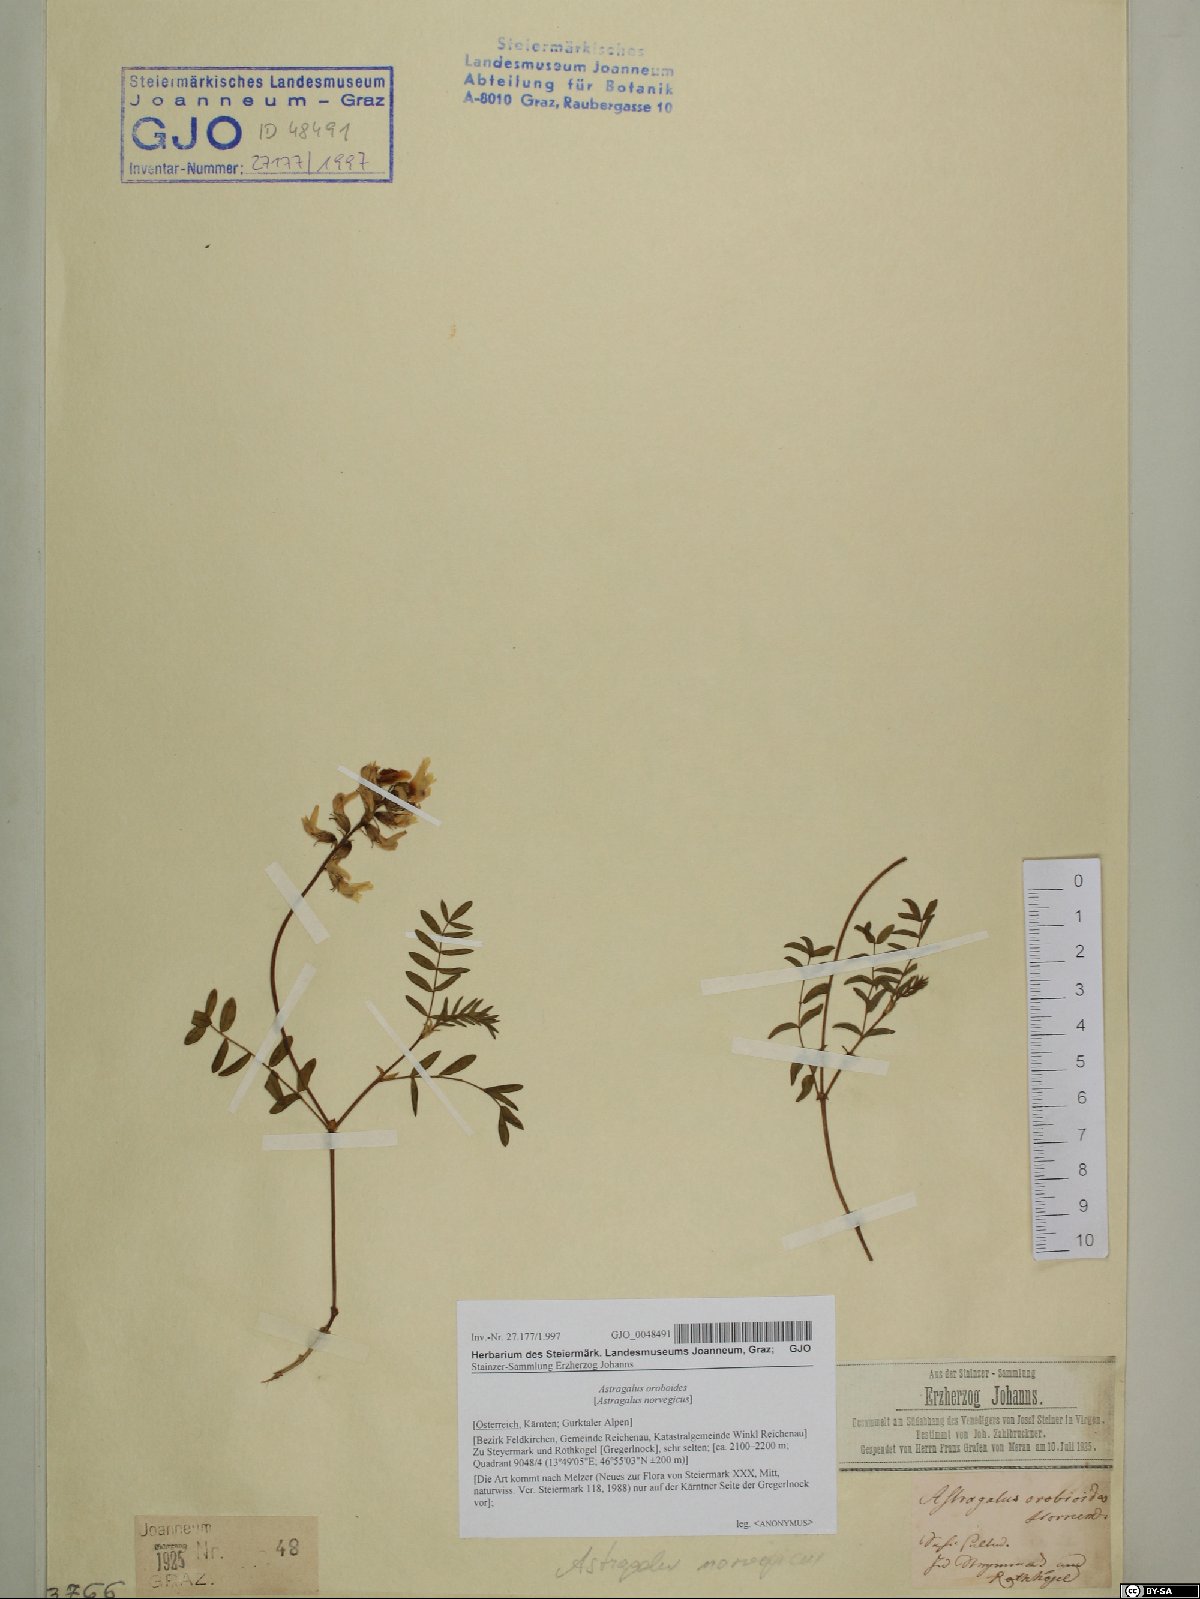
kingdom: Plantae
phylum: Tracheophyta
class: Magnoliopsida
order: Fabales
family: Fabaceae
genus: Astragalus
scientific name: Astragalus norvegicus
